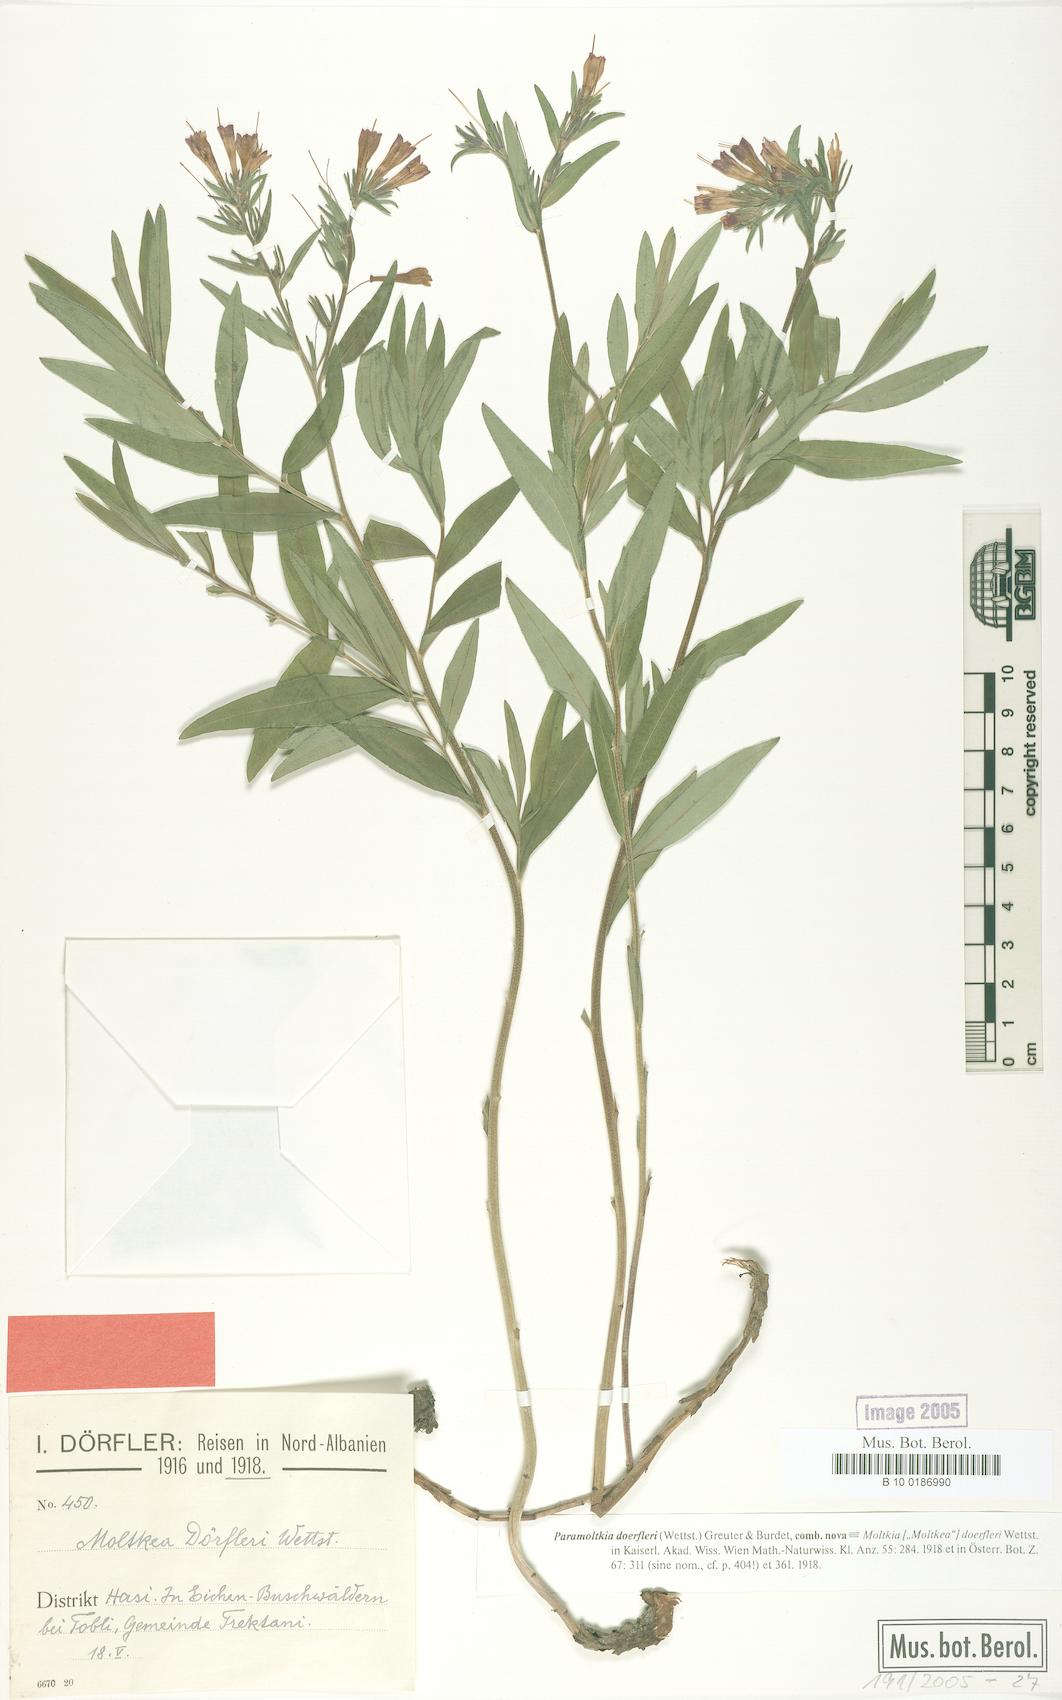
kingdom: Plantae
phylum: Tracheophyta
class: Magnoliopsida
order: Boraginales
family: Boraginaceae
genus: Paramoltkia
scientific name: Paramoltkia doerfleri
